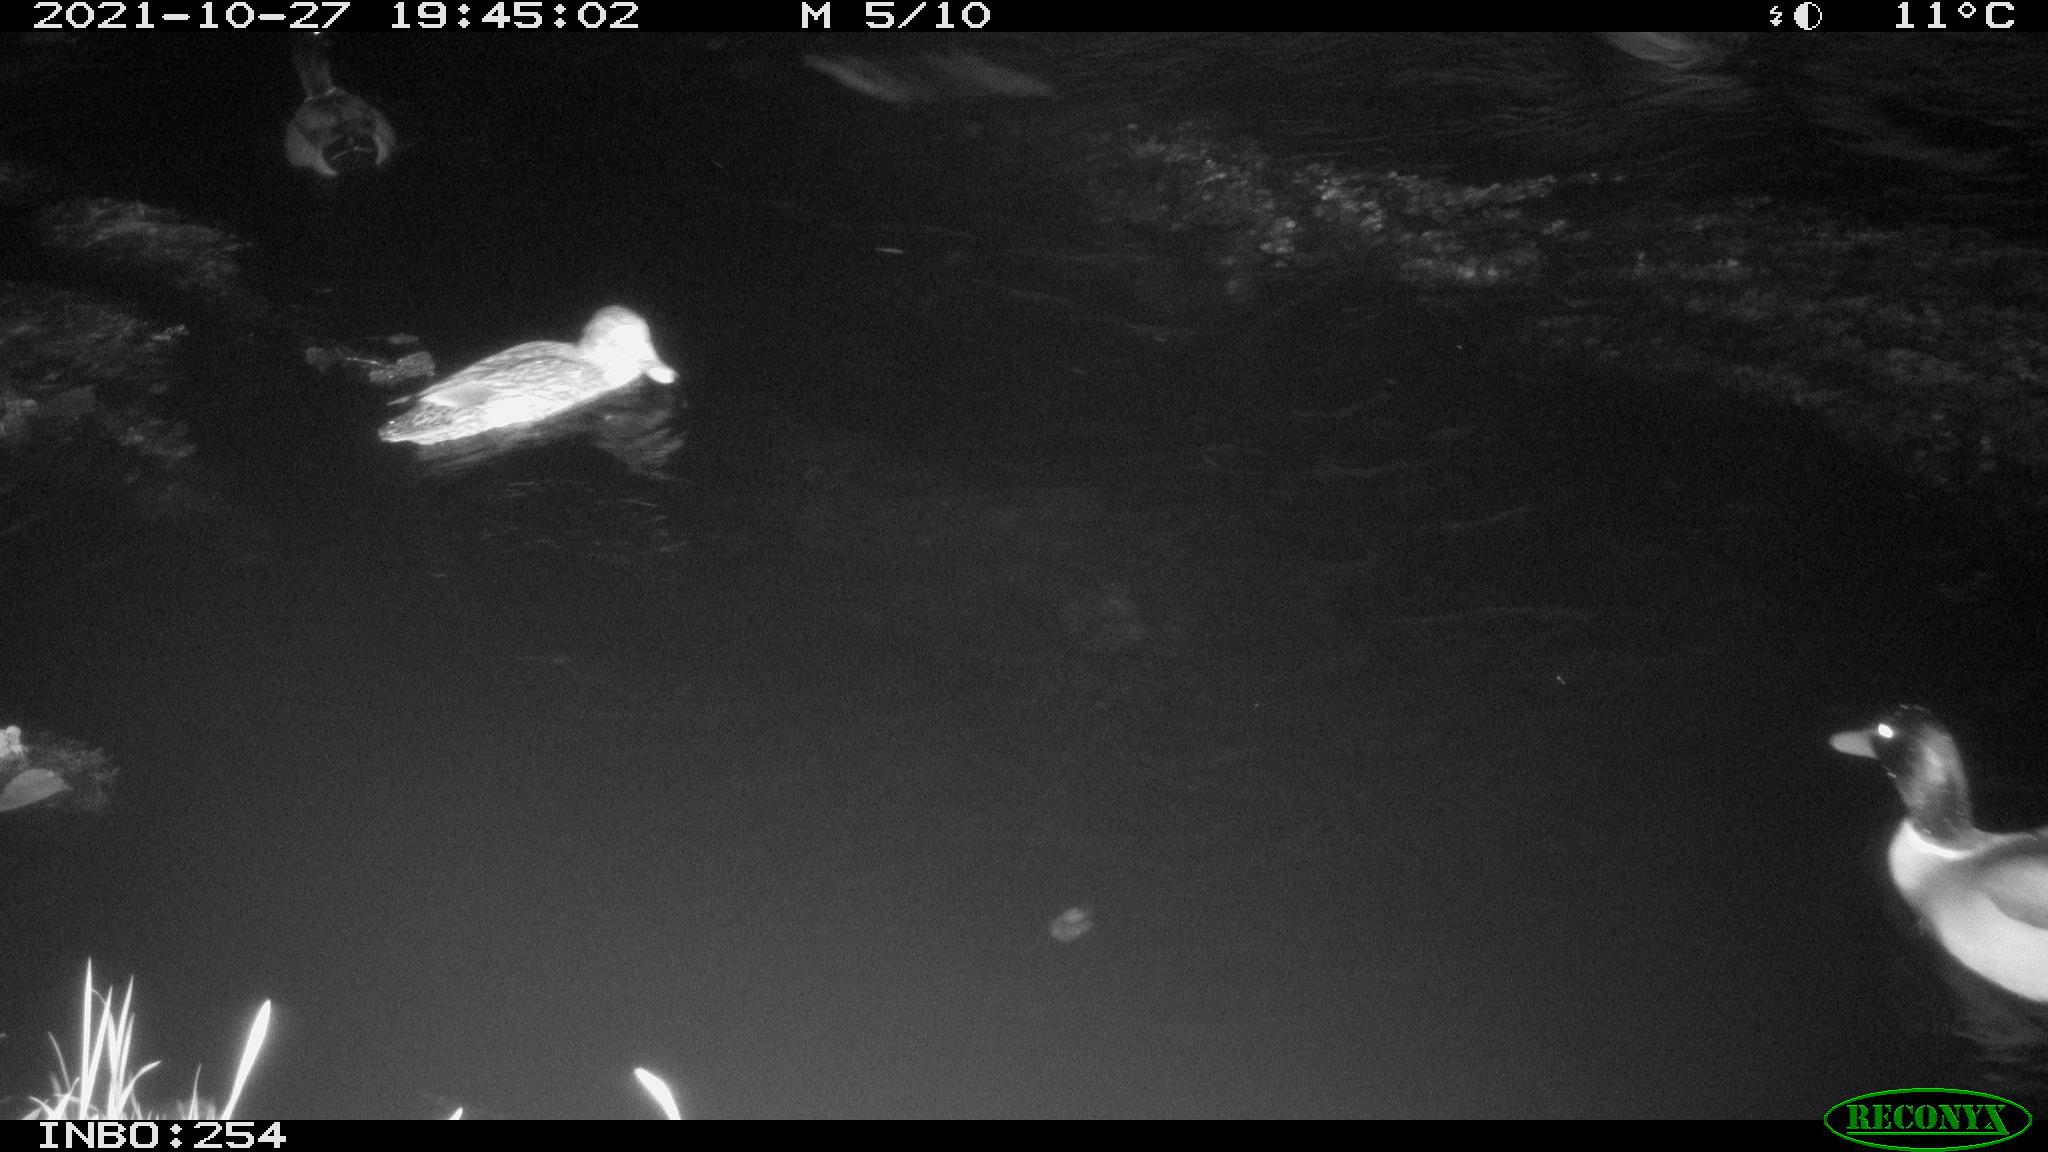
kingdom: Animalia
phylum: Chordata
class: Aves
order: Anseriformes
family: Anatidae
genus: Anas
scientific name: Anas platyrhynchos
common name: Mallard
